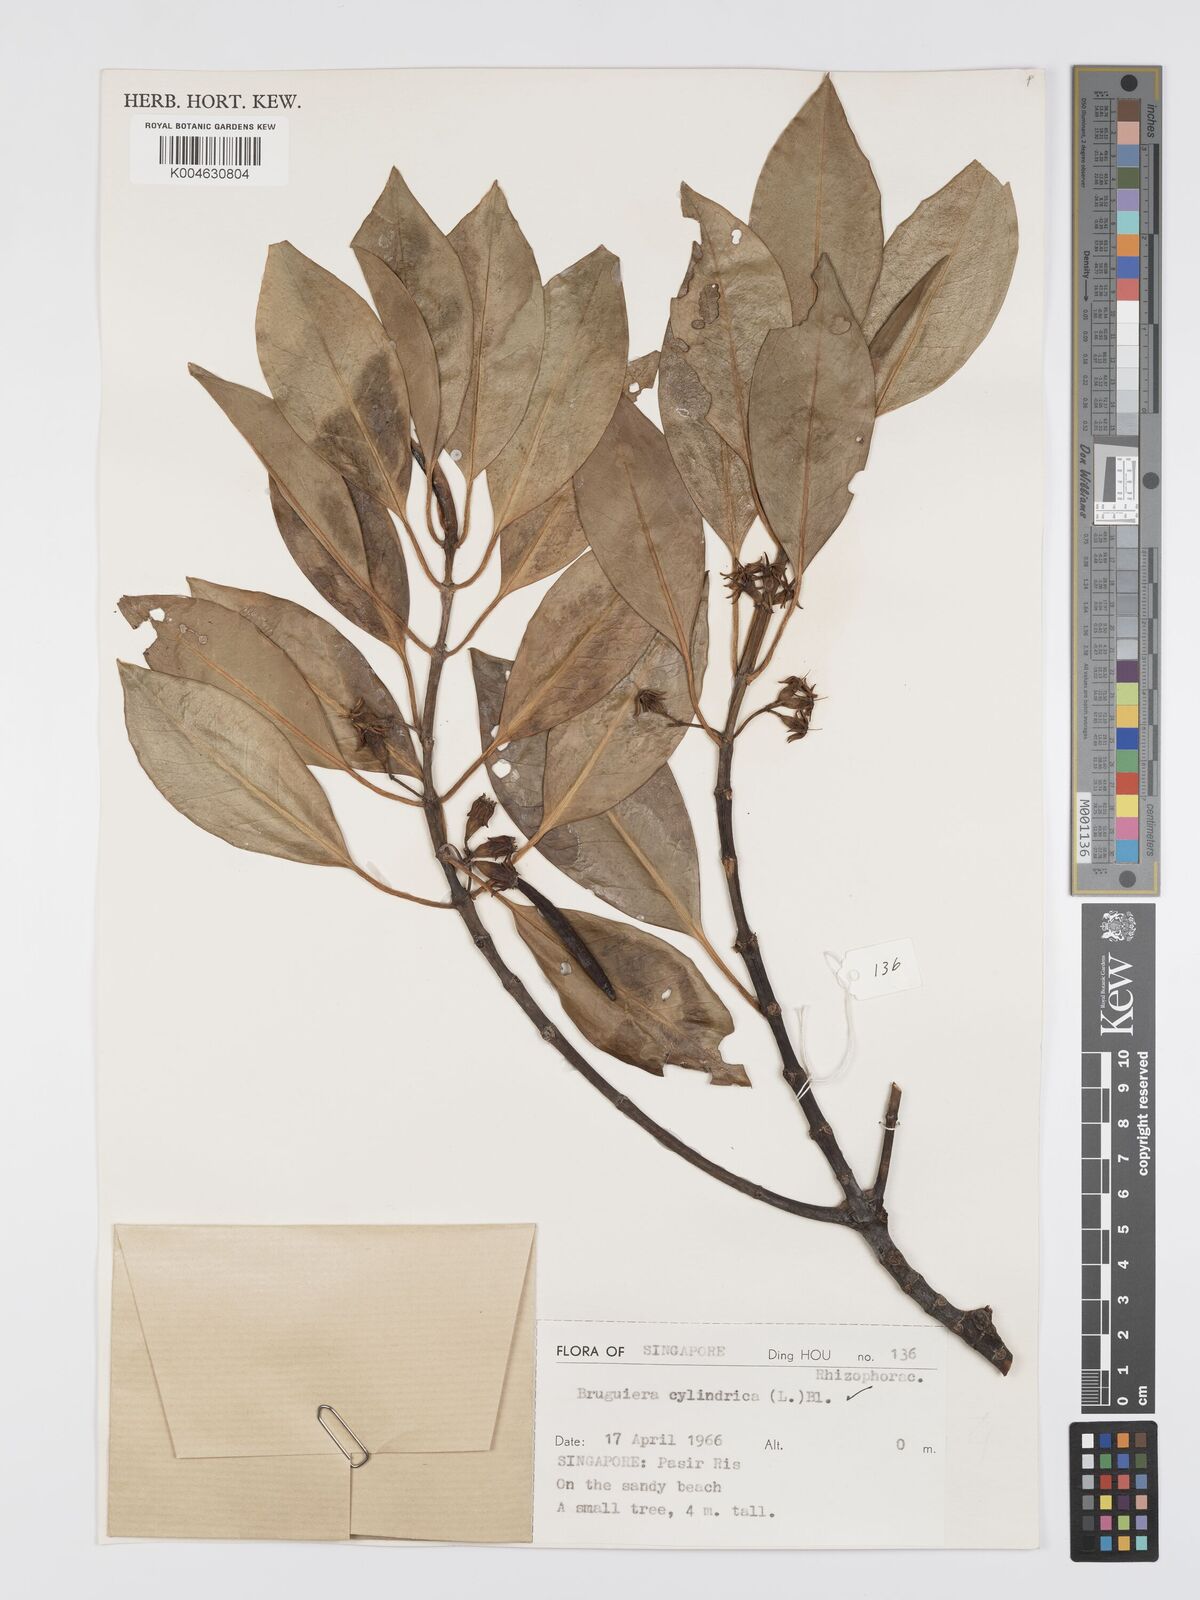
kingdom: Plantae
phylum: Tracheophyta
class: Magnoliopsida
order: Malpighiales
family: Rhizophoraceae
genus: Bruguiera
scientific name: Bruguiera cylindrica
